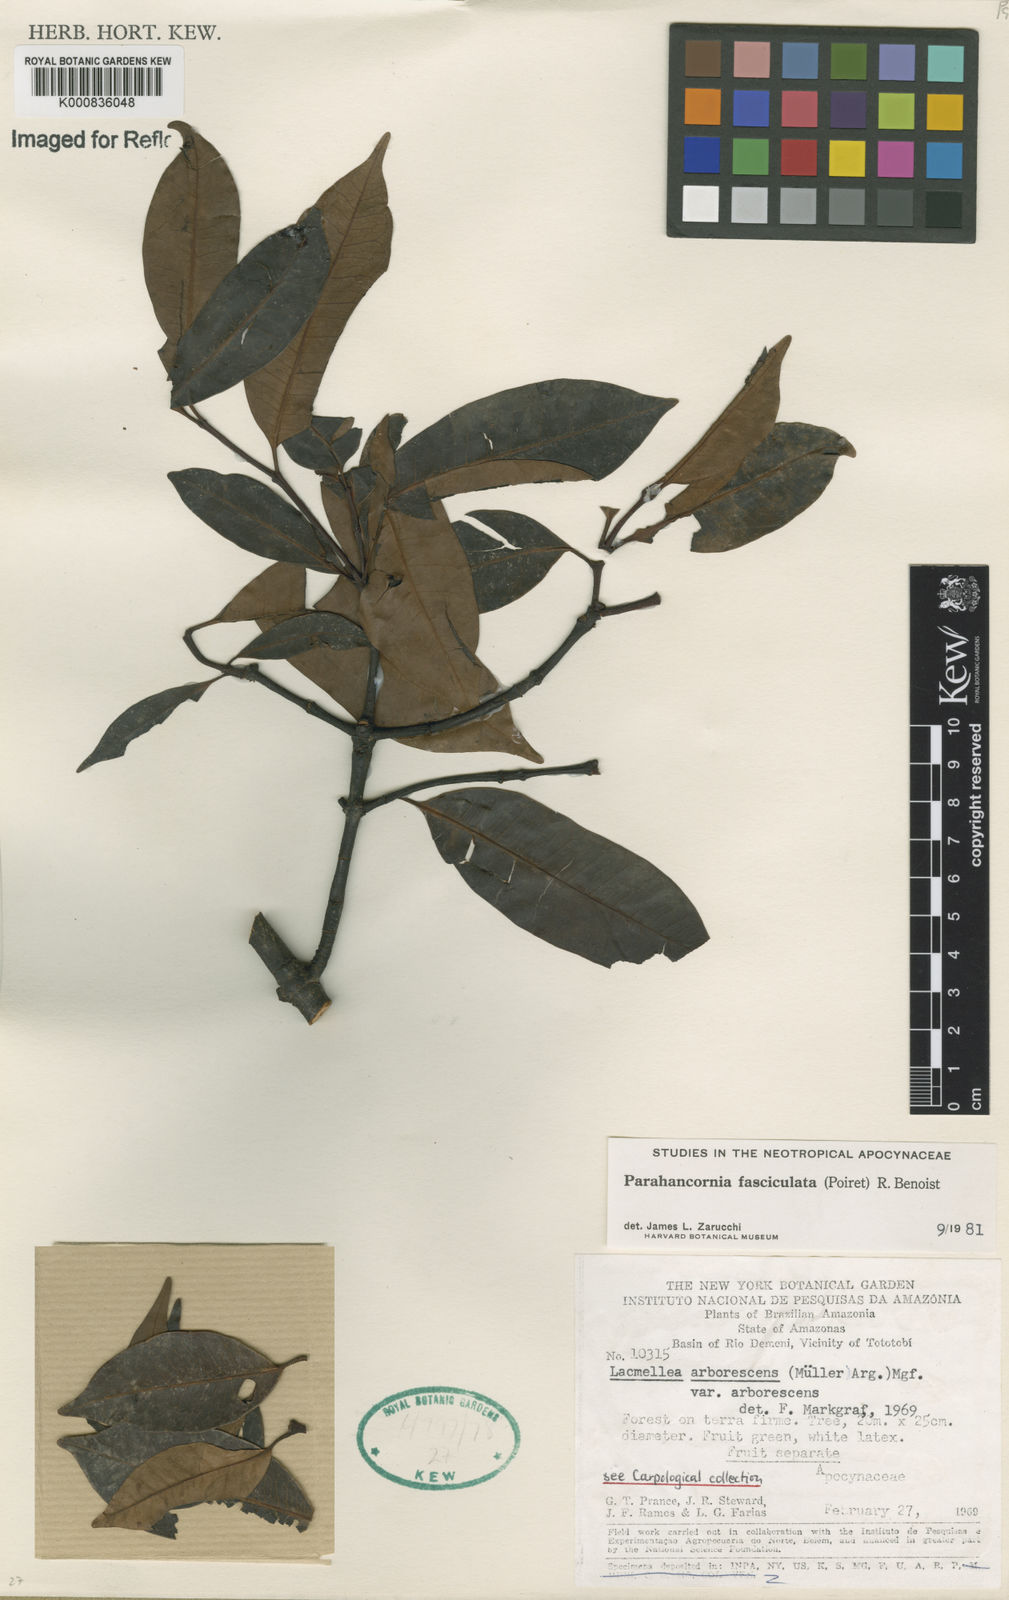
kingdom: Plantae
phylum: Tracheophyta
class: Magnoliopsida
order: Gentianales
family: Apocynaceae
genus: Parahancornia
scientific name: Parahancornia fasciculata
